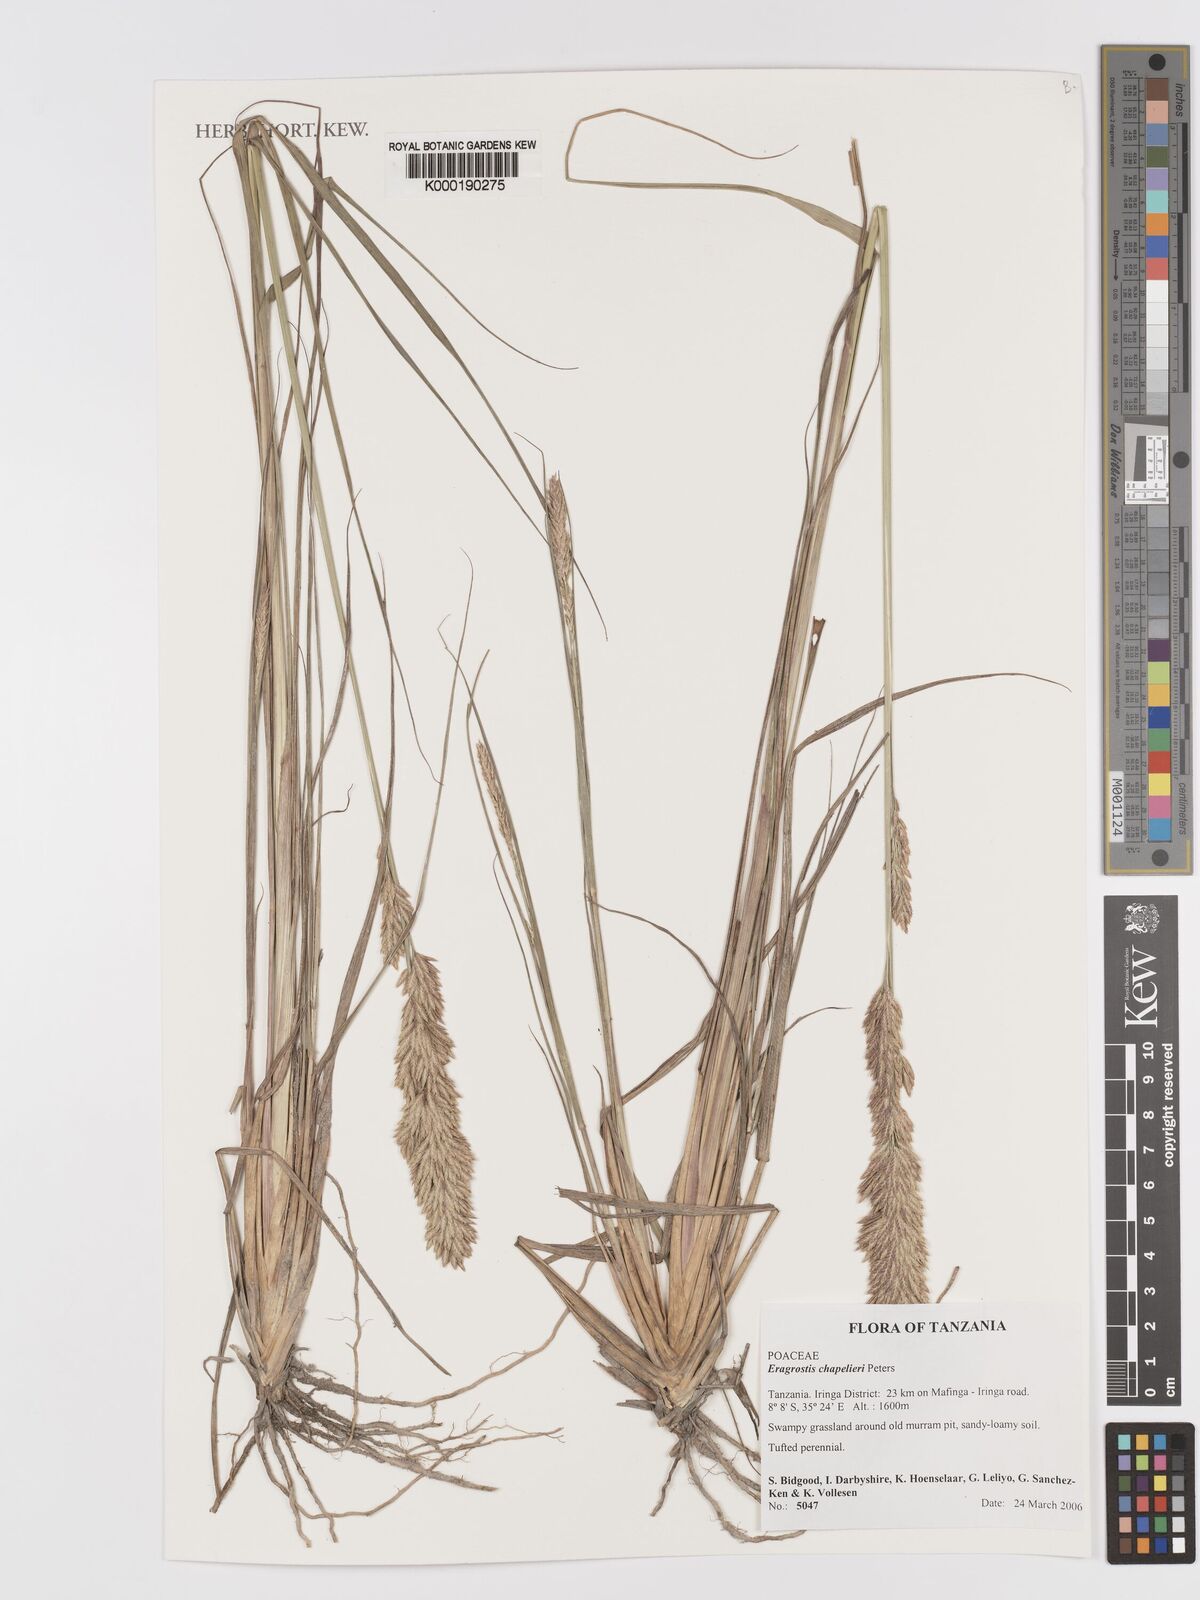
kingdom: Plantae
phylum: Tracheophyta
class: Liliopsida
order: Poales
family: Poaceae
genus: Eragrostis
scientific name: Eragrostis
